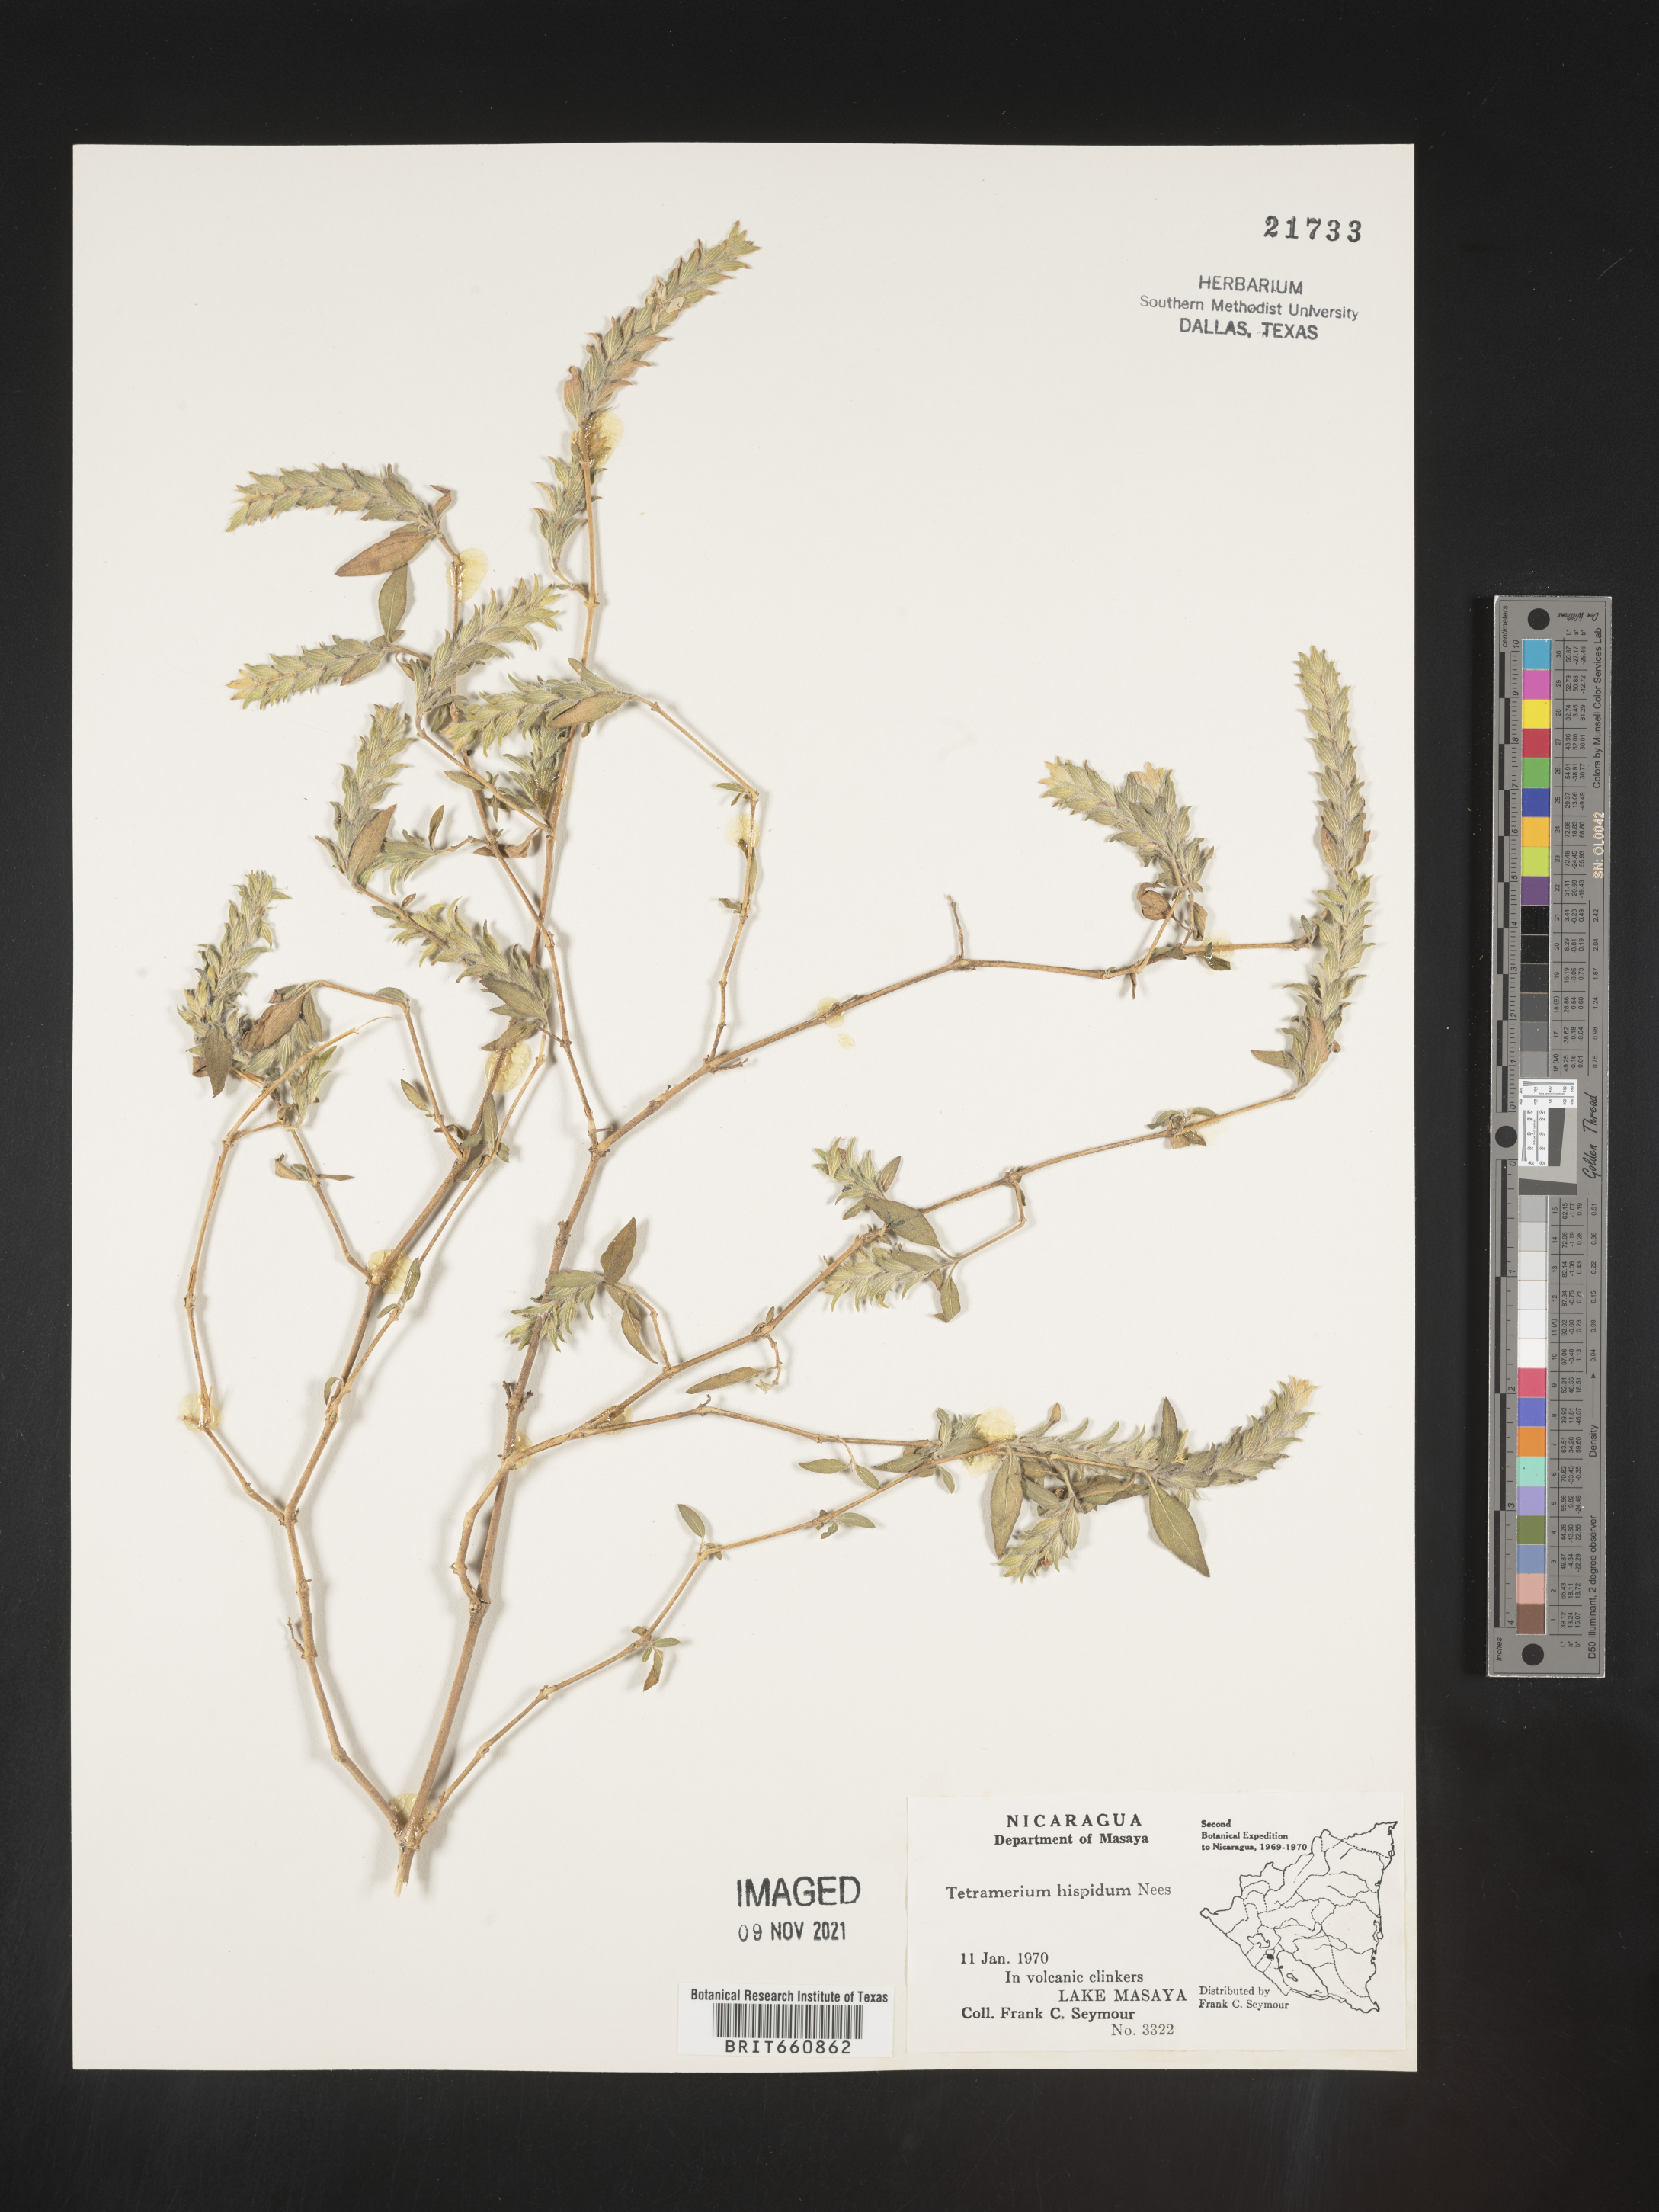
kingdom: Plantae
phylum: Tracheophyta
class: Magnoliopsida
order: Lamiales
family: Acanthaceae
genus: Tetramerium
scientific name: Tetramerium
